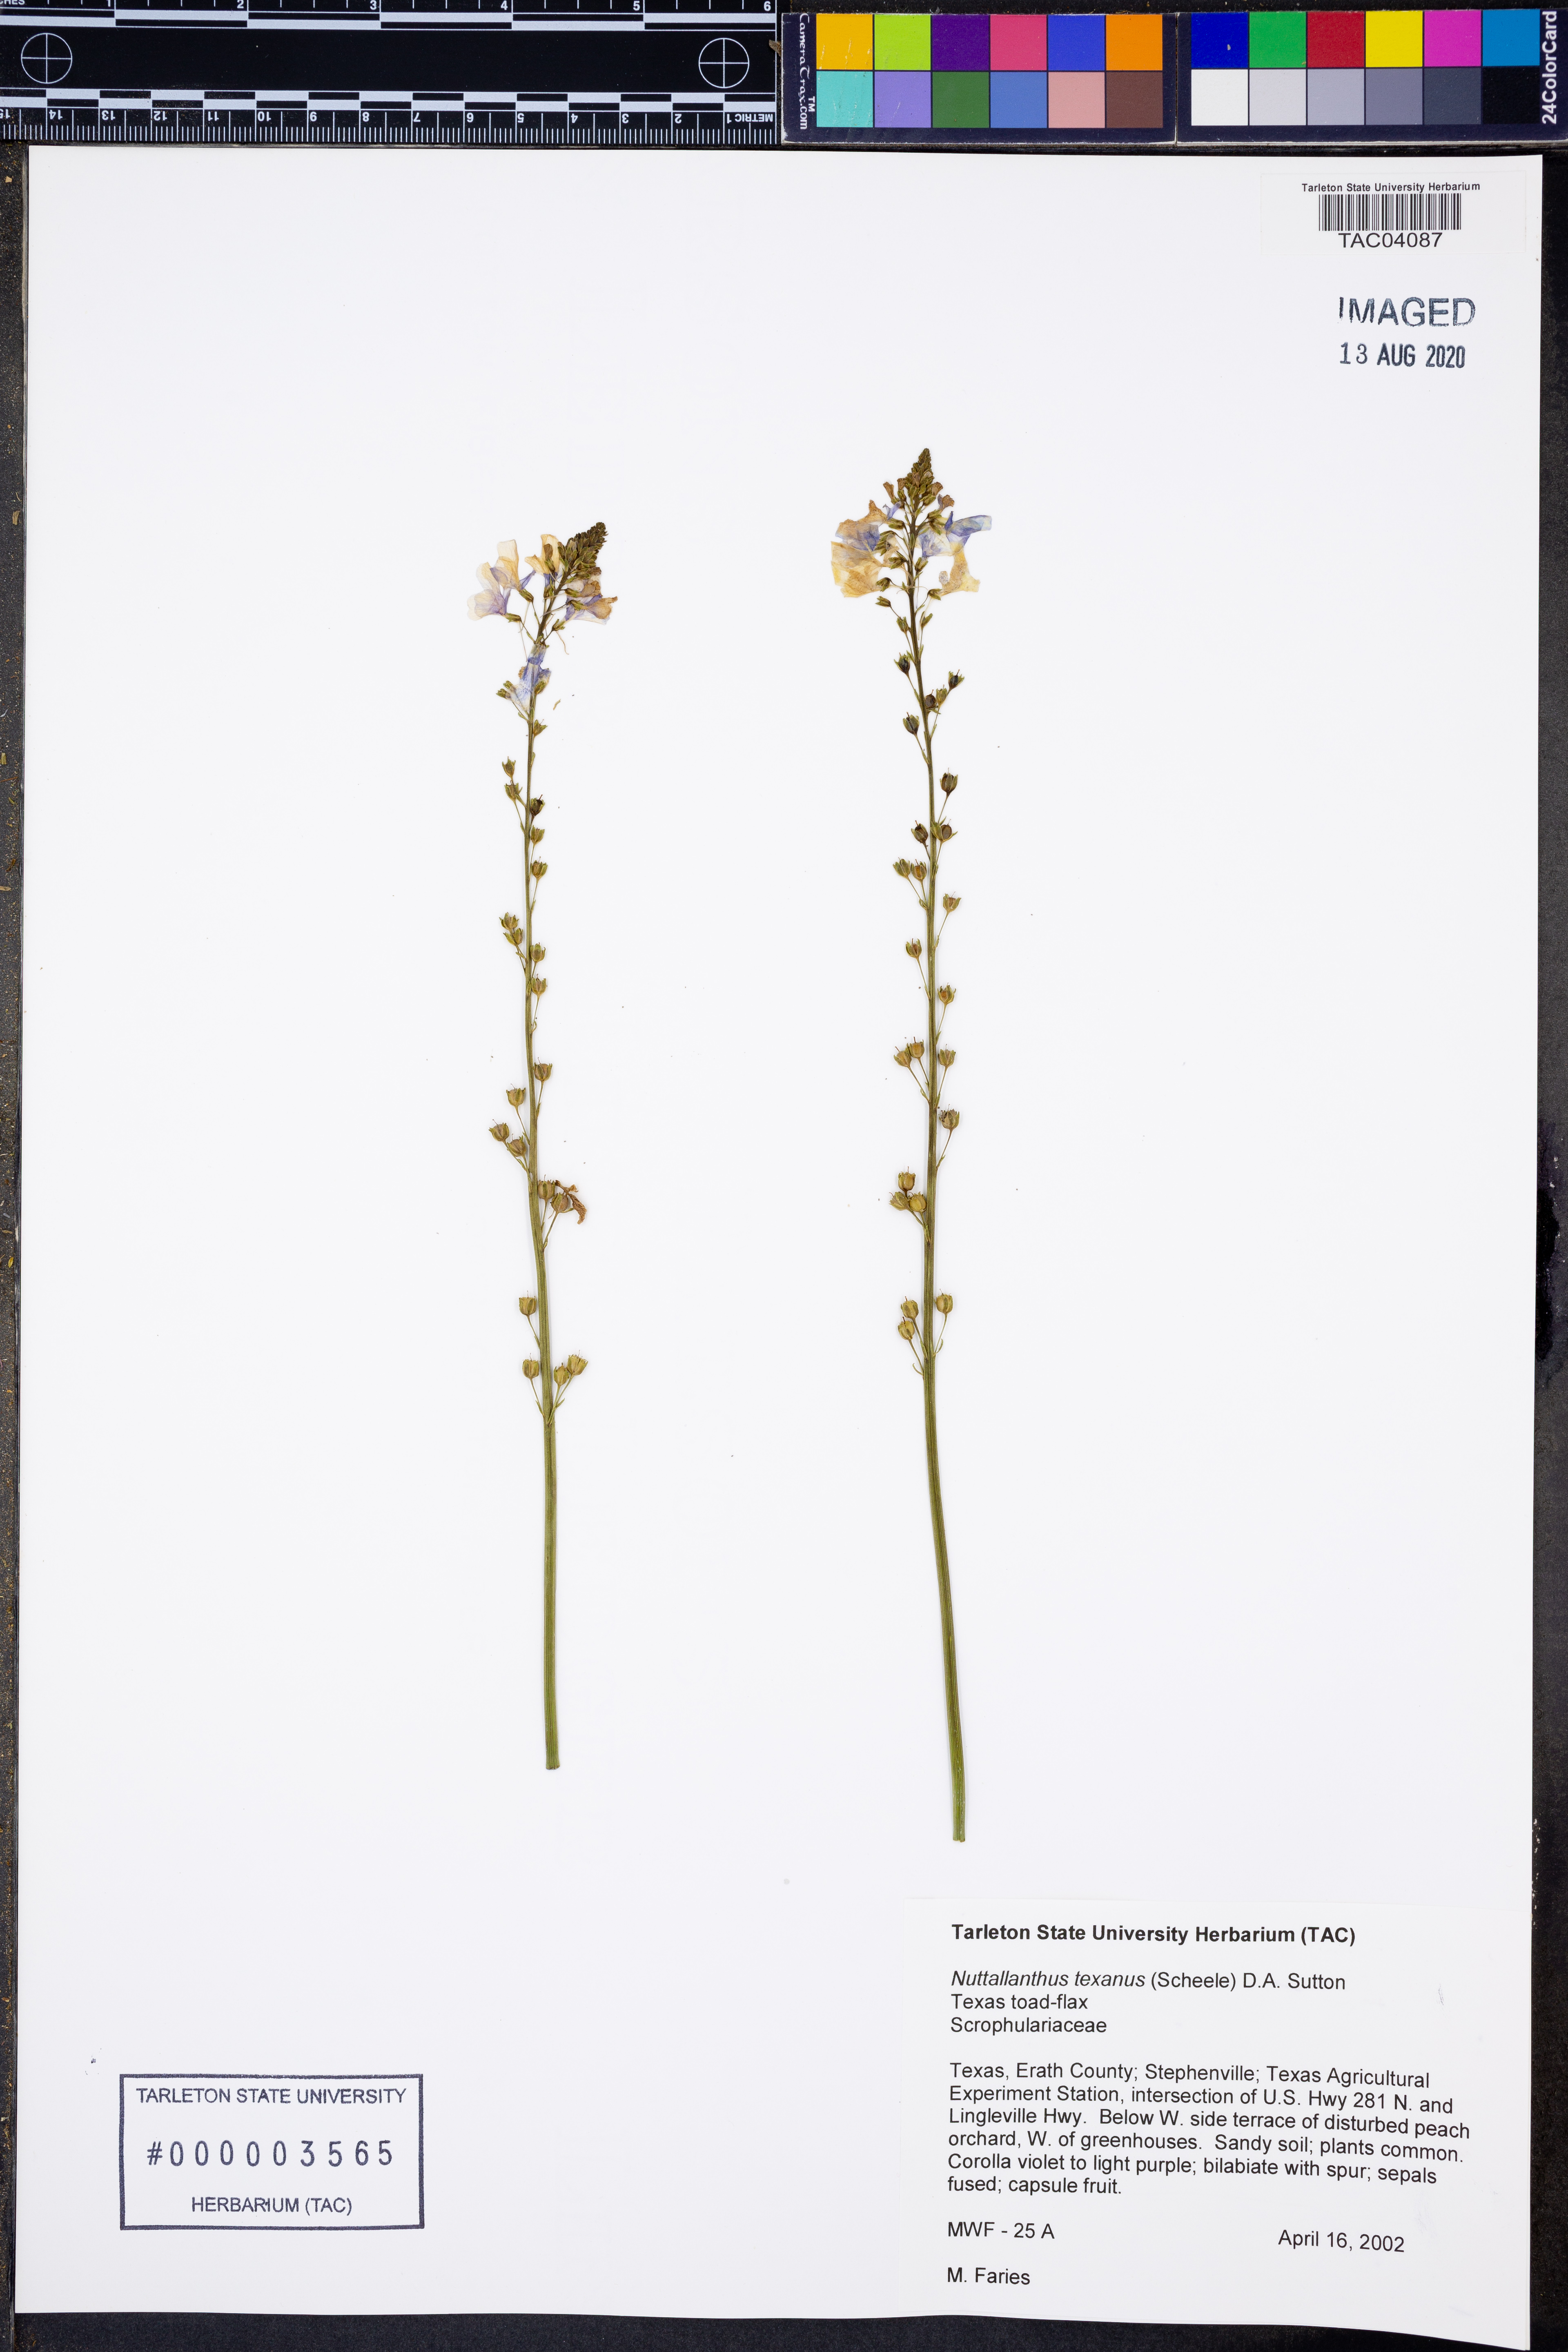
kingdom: Plantae
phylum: Tracheophyta
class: Magnoliopsida
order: Lamiales
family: Plantaginaceae
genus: Nuttallanthus
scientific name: Nuttallanthus texanus
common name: Texas toadflax
